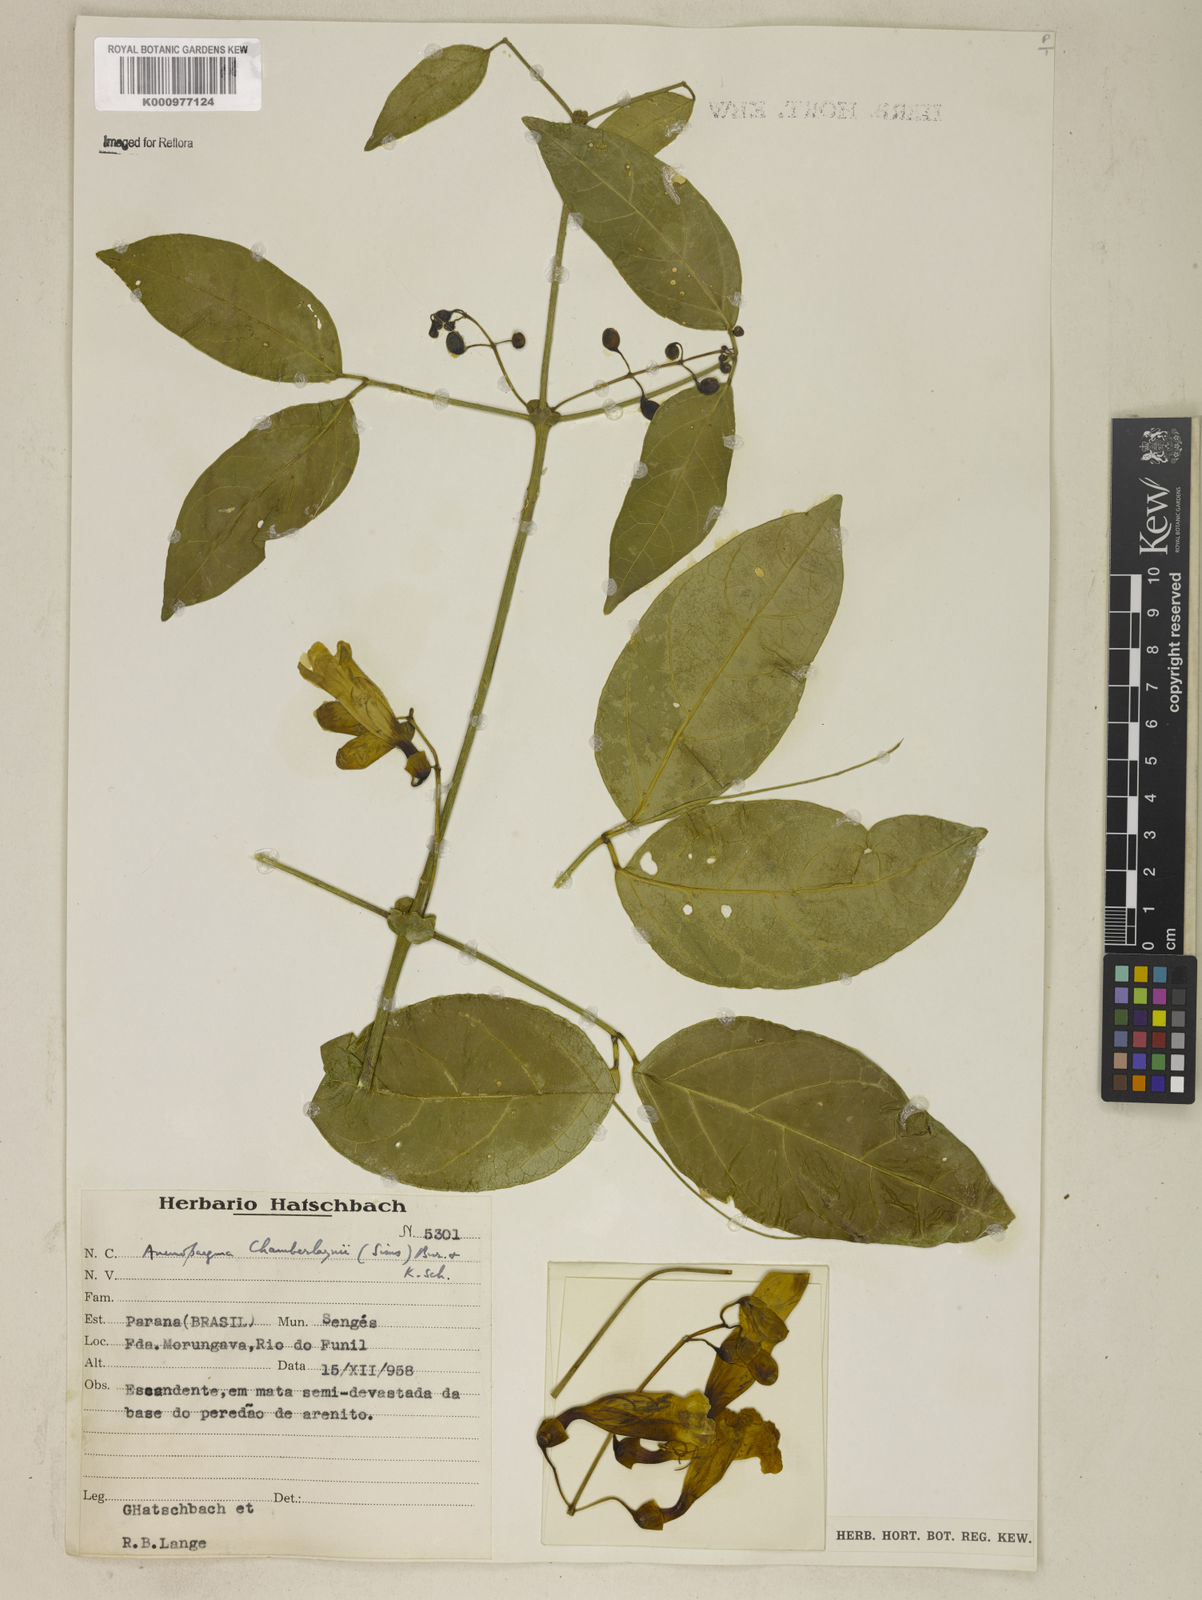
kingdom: Plantae
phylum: Tracheophyta
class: Magnoliopsida
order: Lamiales
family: Bignoniaceae
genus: Anemopaegma
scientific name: Anemopaegma chamberlaynii
